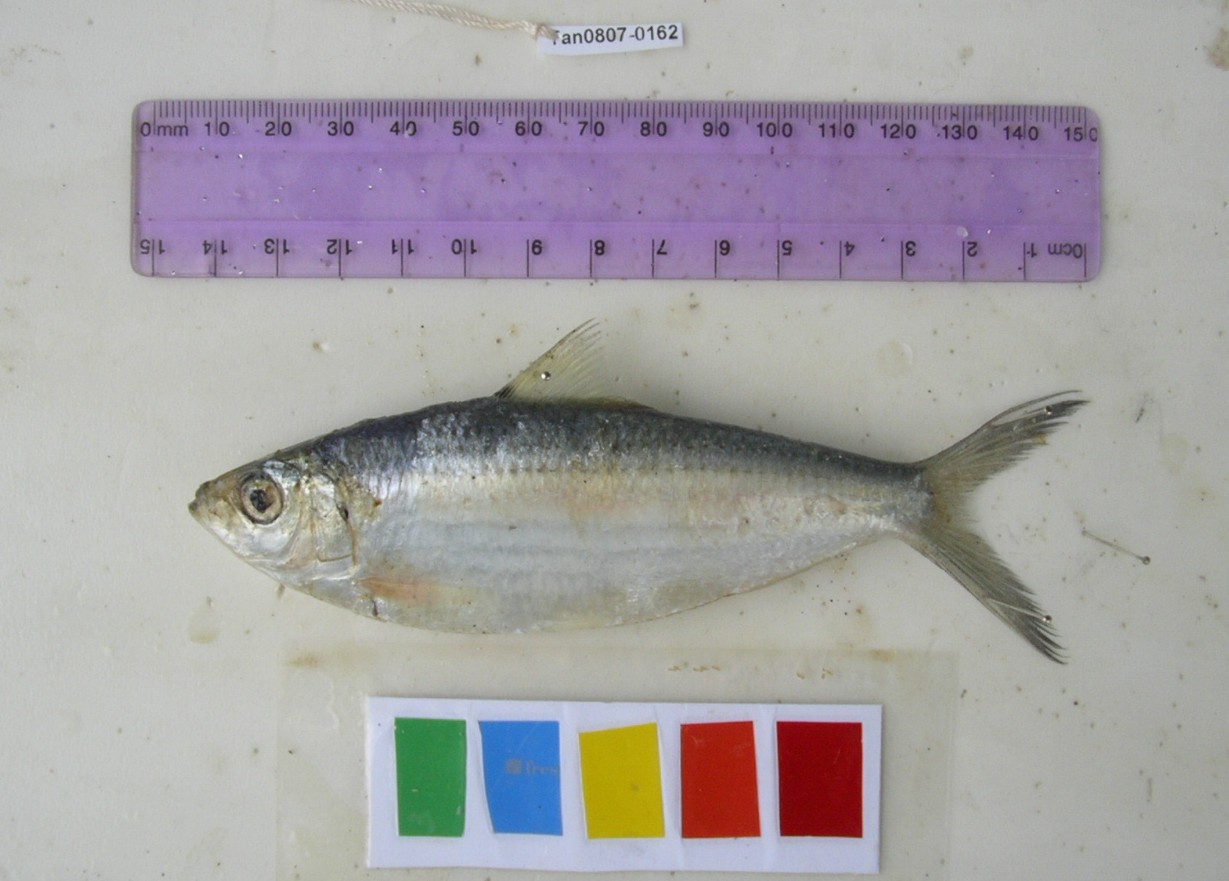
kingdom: Animalia
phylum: Chordata
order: Clupeiformes
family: Clupeidae
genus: Hilsa
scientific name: Hilsa kelee
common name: Kelee shad
